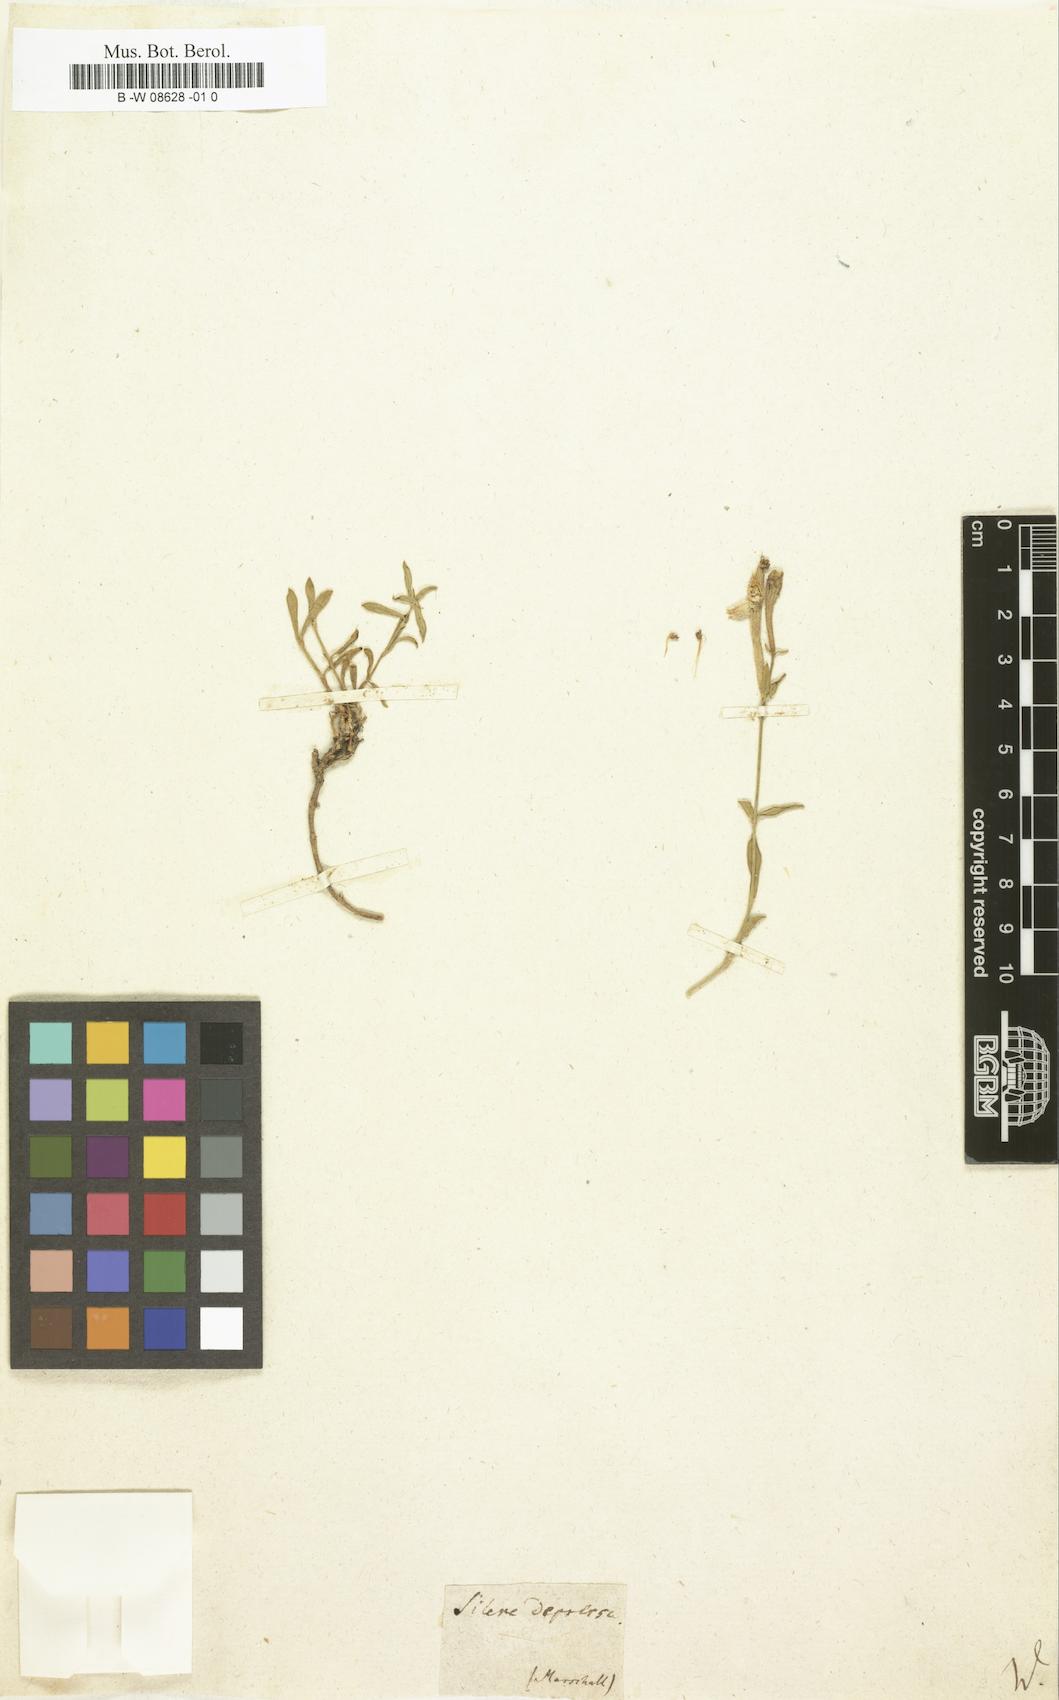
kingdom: Plantae
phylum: Tracheophyta
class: Magnoliopsida
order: Caryophyllales
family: Caryophyllaceae
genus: Silene
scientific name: Silene
